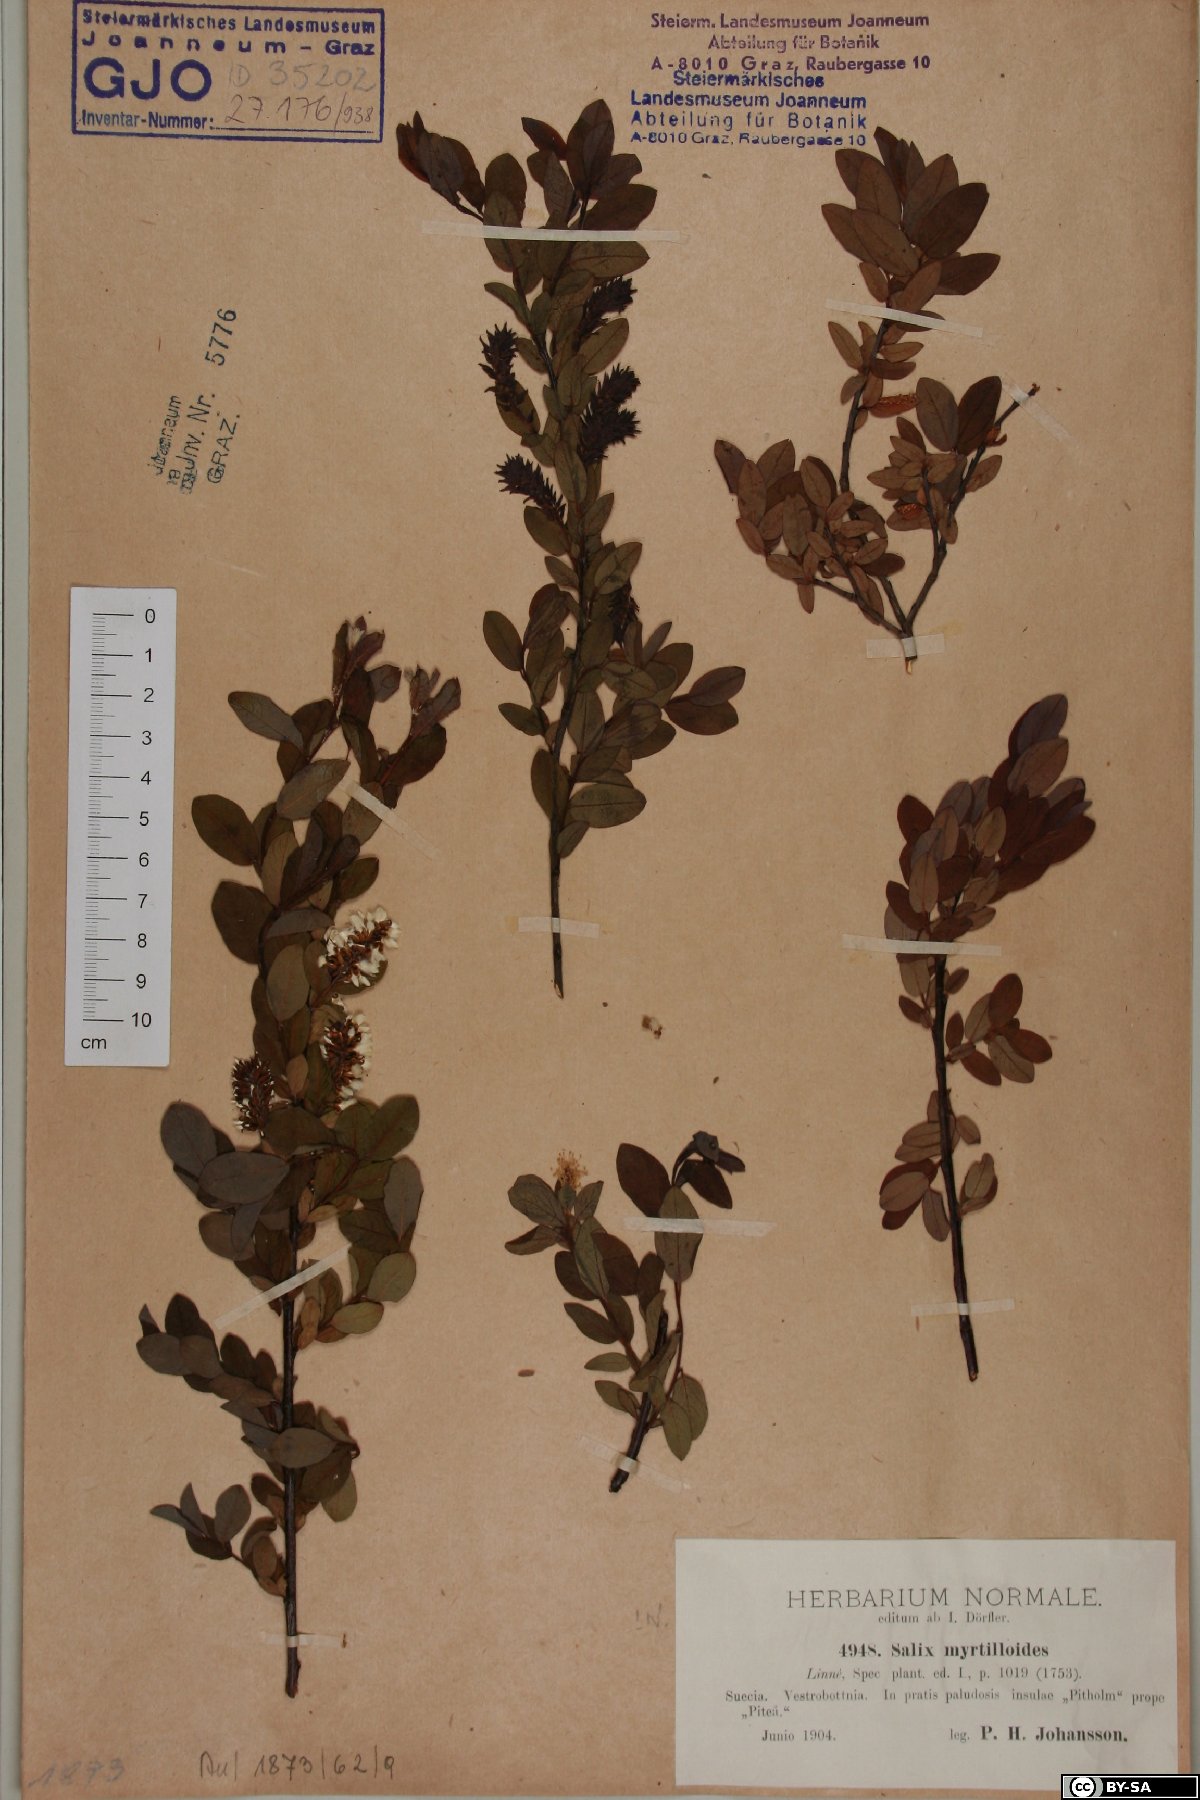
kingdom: Plantae
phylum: Tracheophyta
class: Magnoliopsida
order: Malpighiales
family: Salicaceae
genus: Salix
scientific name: Salix myrtilloides
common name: Myrtle-leaved willow
